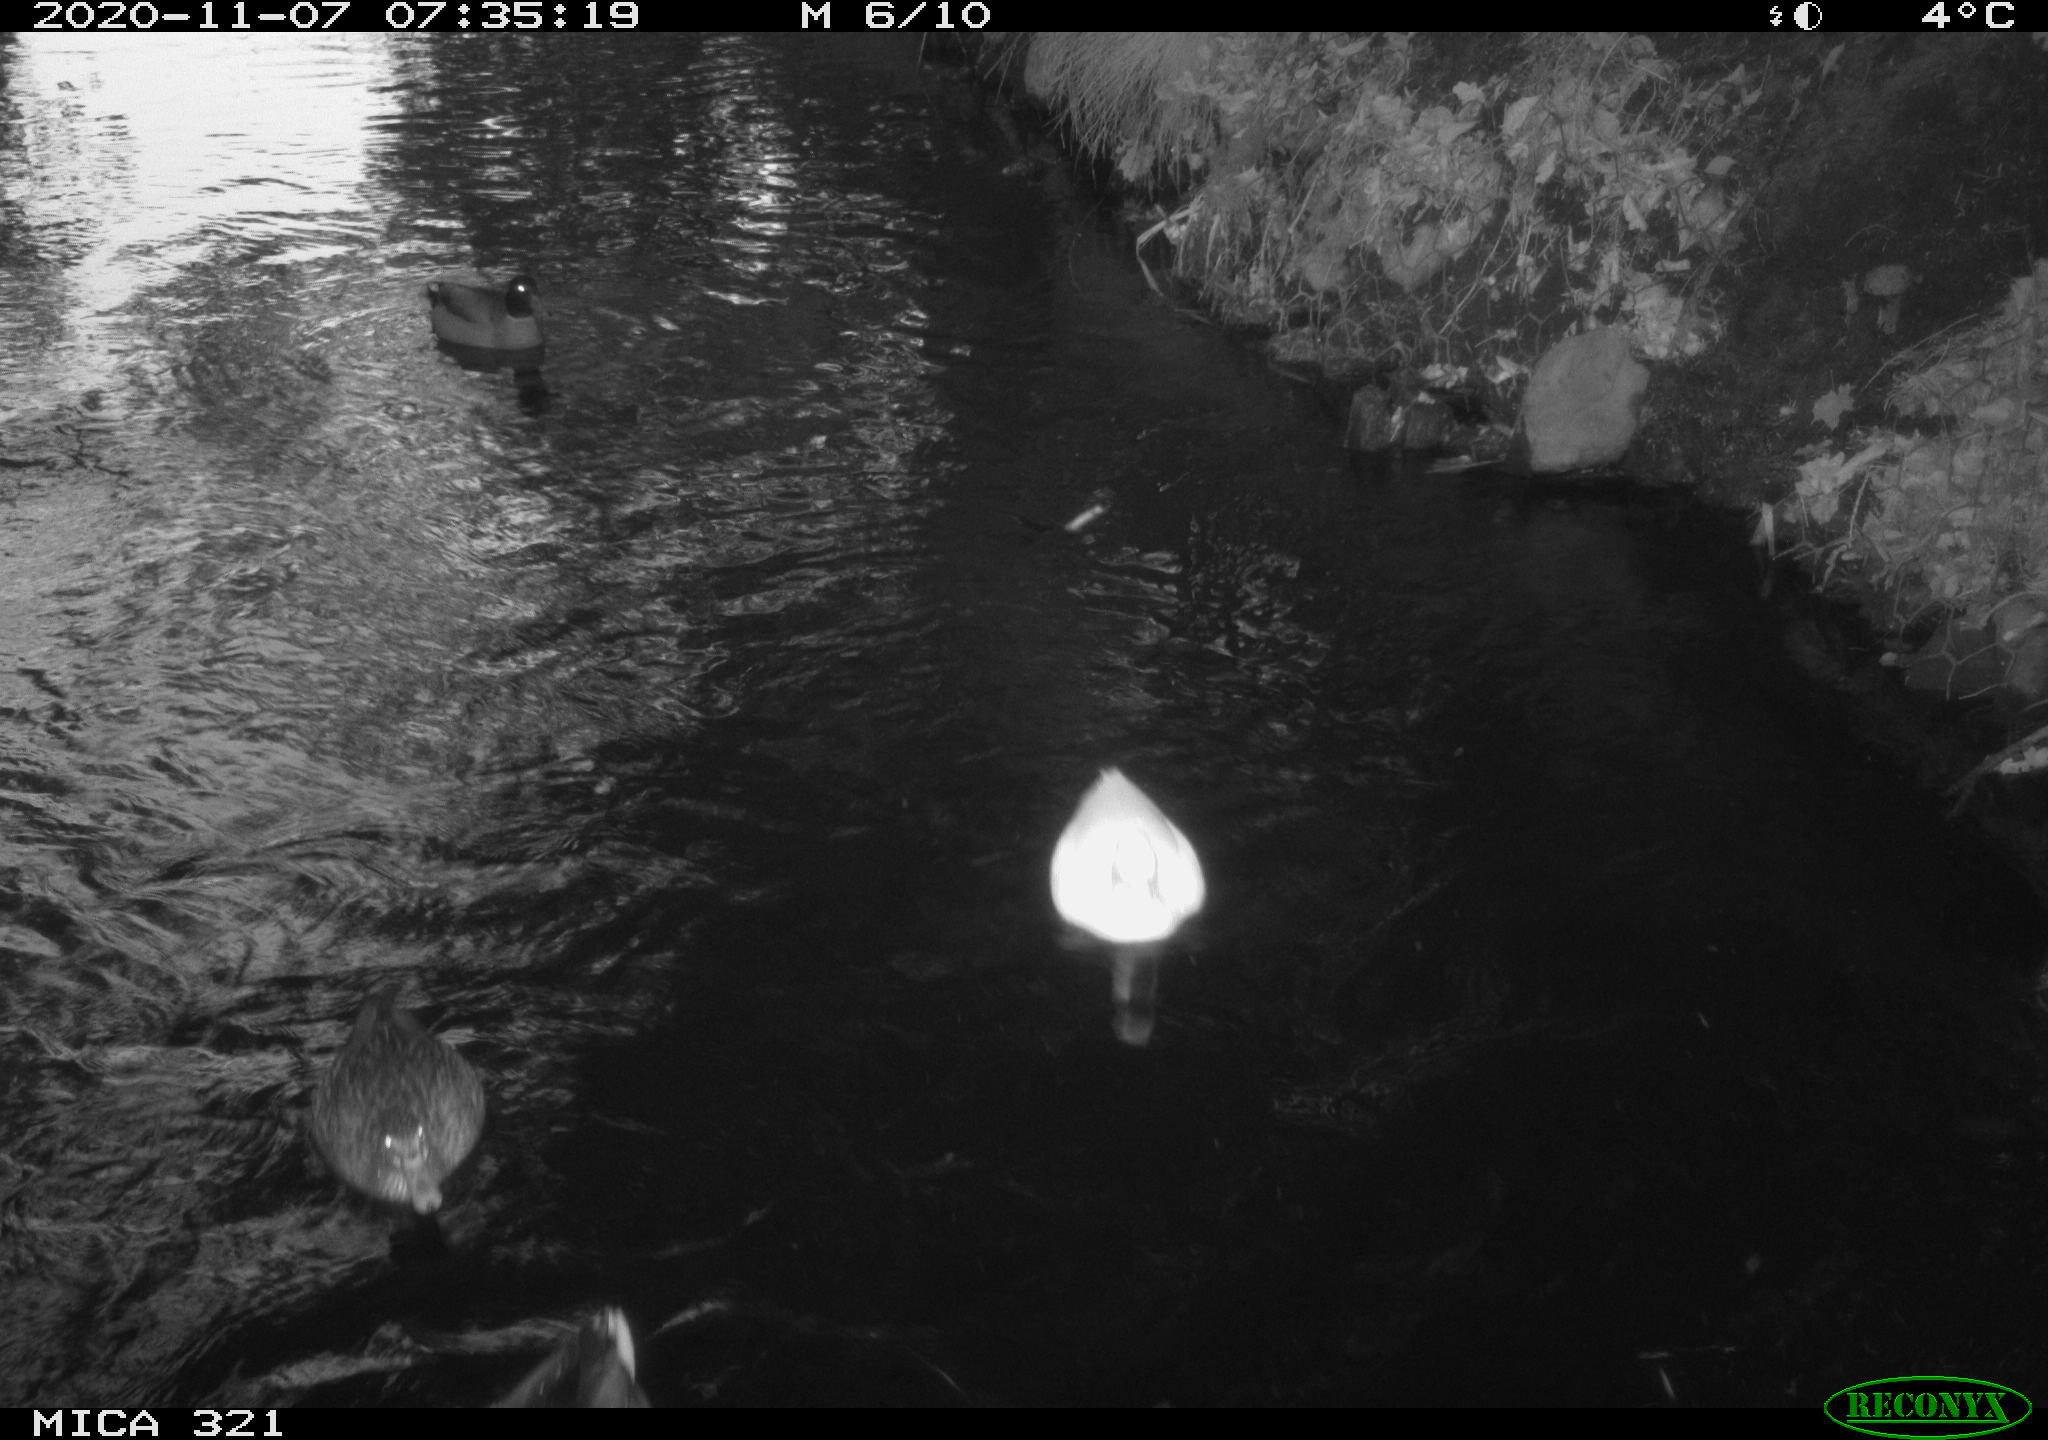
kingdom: Animalia
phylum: Chordata
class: Aves
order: Anseriformes
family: Anatidae
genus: Anas
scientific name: Anas platyrhynchos
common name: Mallard
